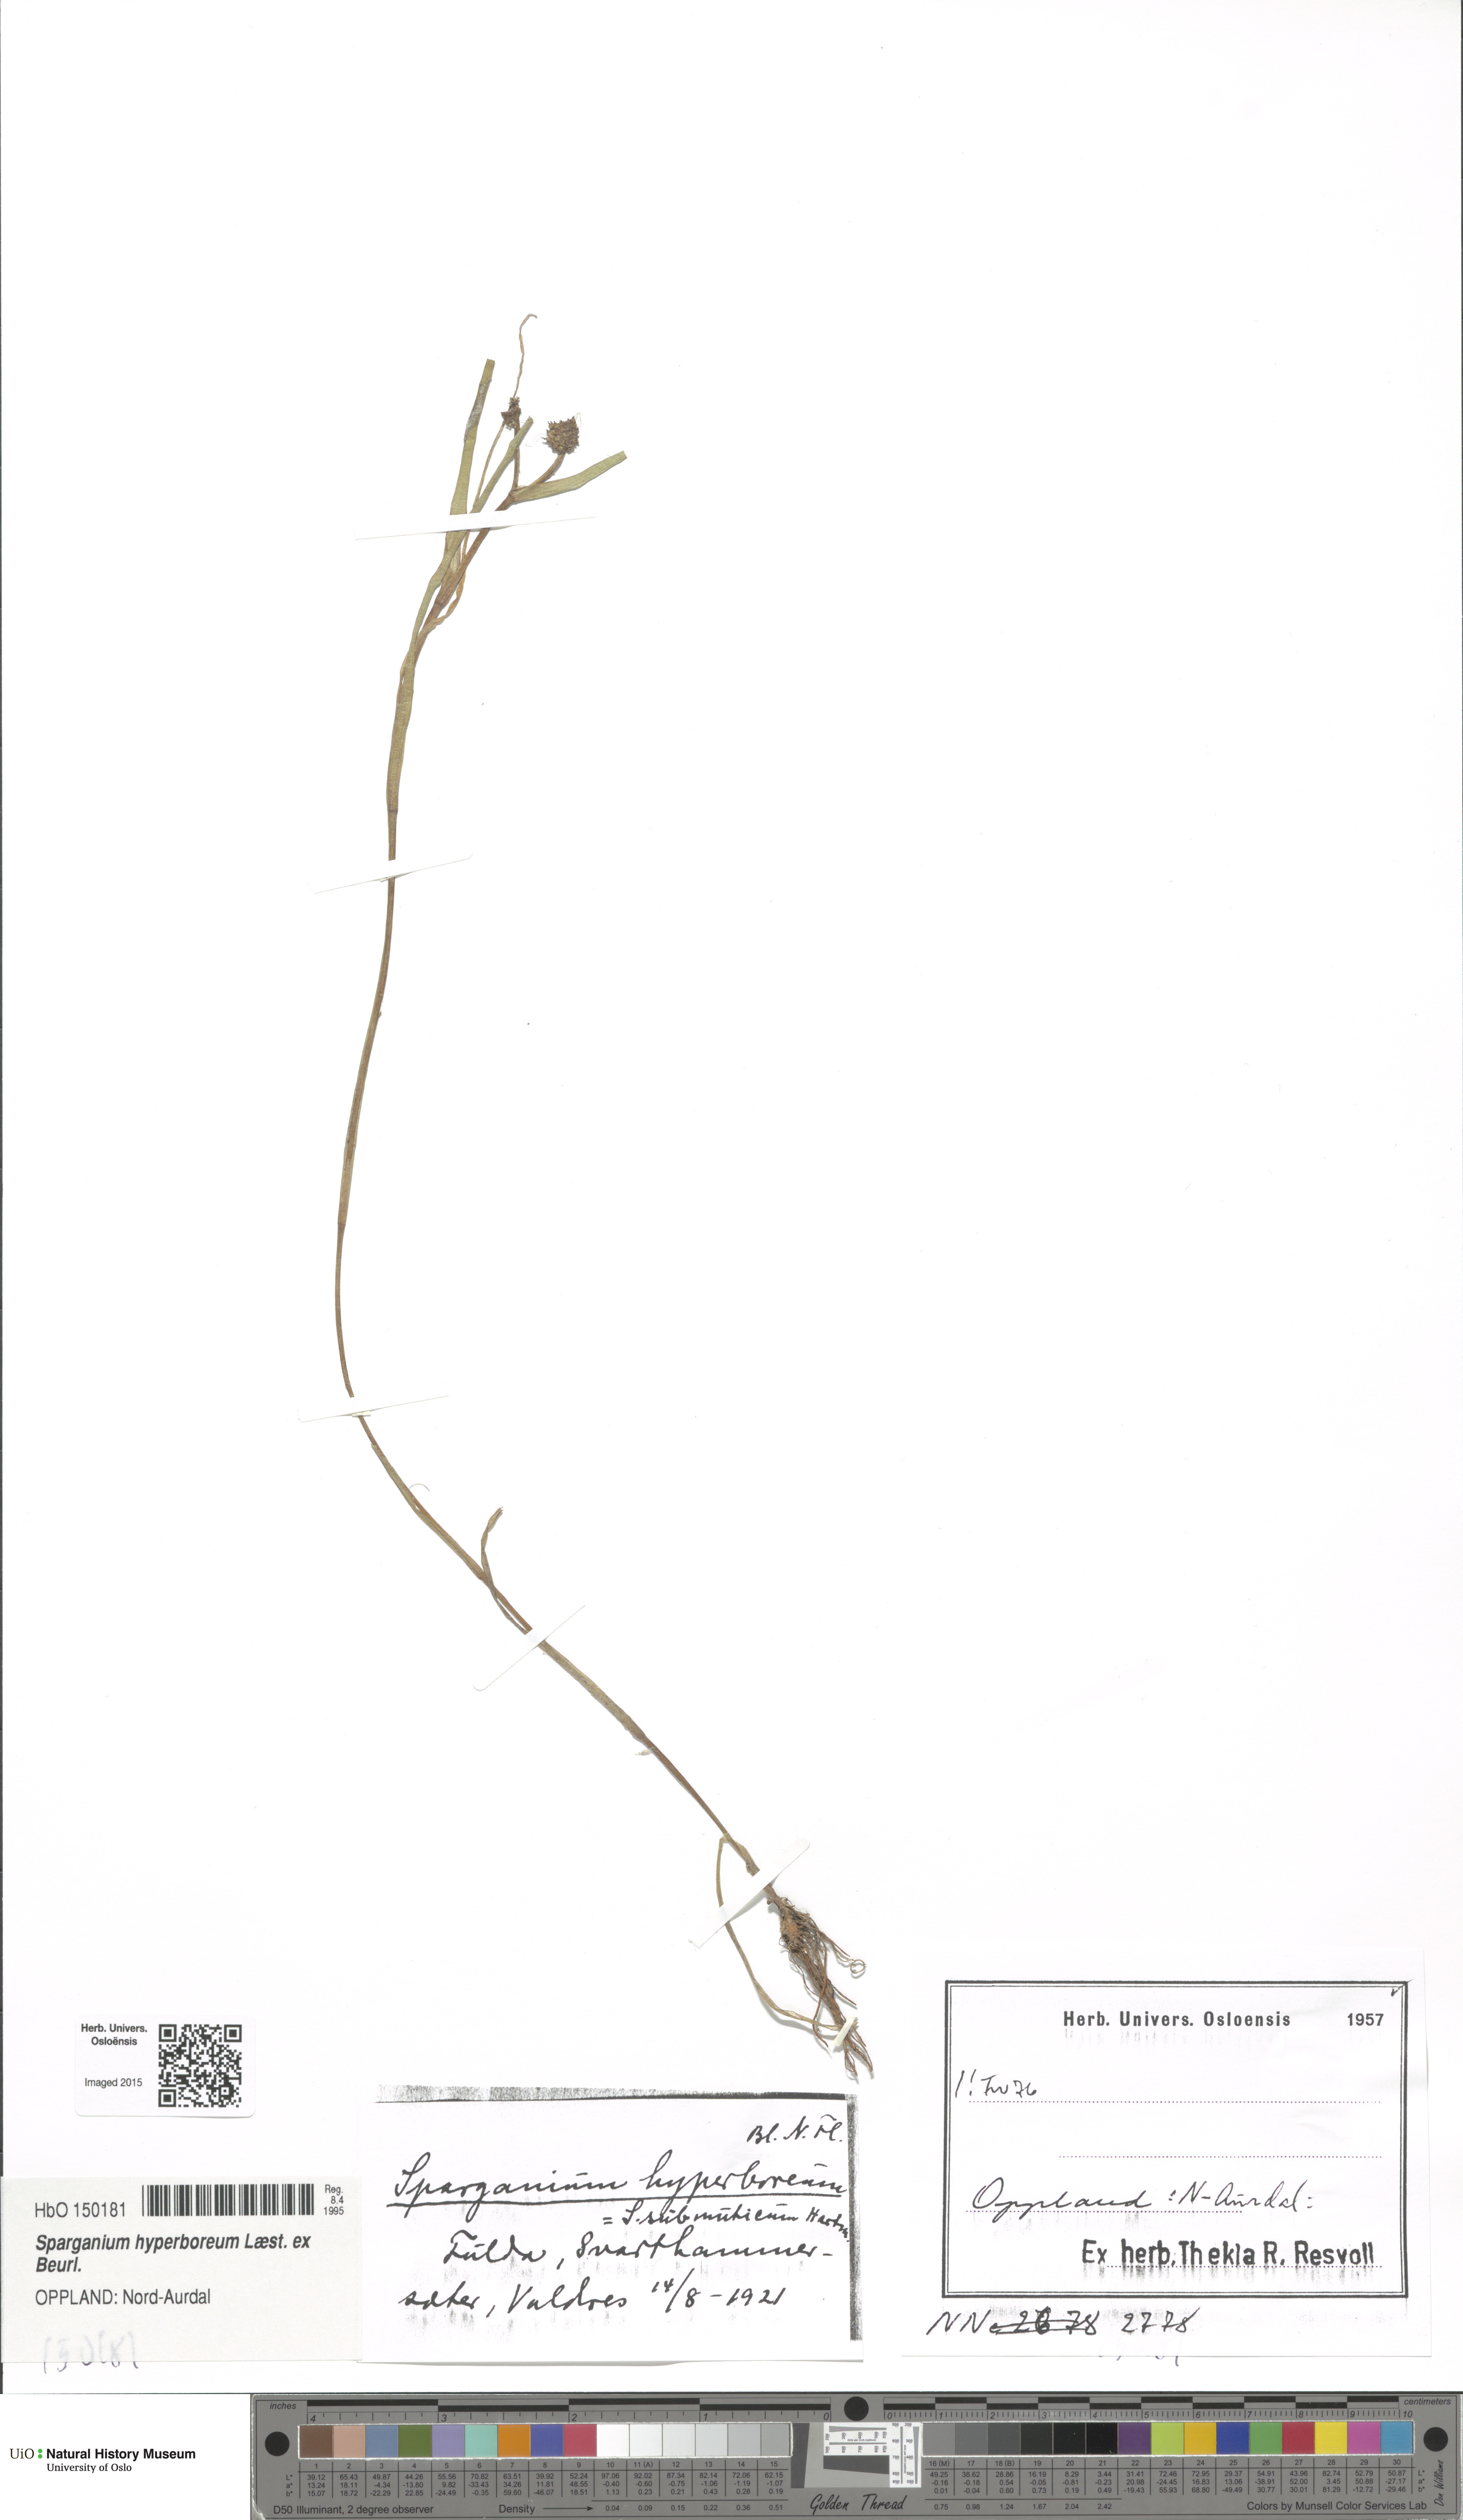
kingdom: Plantae
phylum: Tracheophyta
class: Liliopsida
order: Poales
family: Typhaceae
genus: Sparganium
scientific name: Sparganium hyperboreum
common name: Arctic burreed
